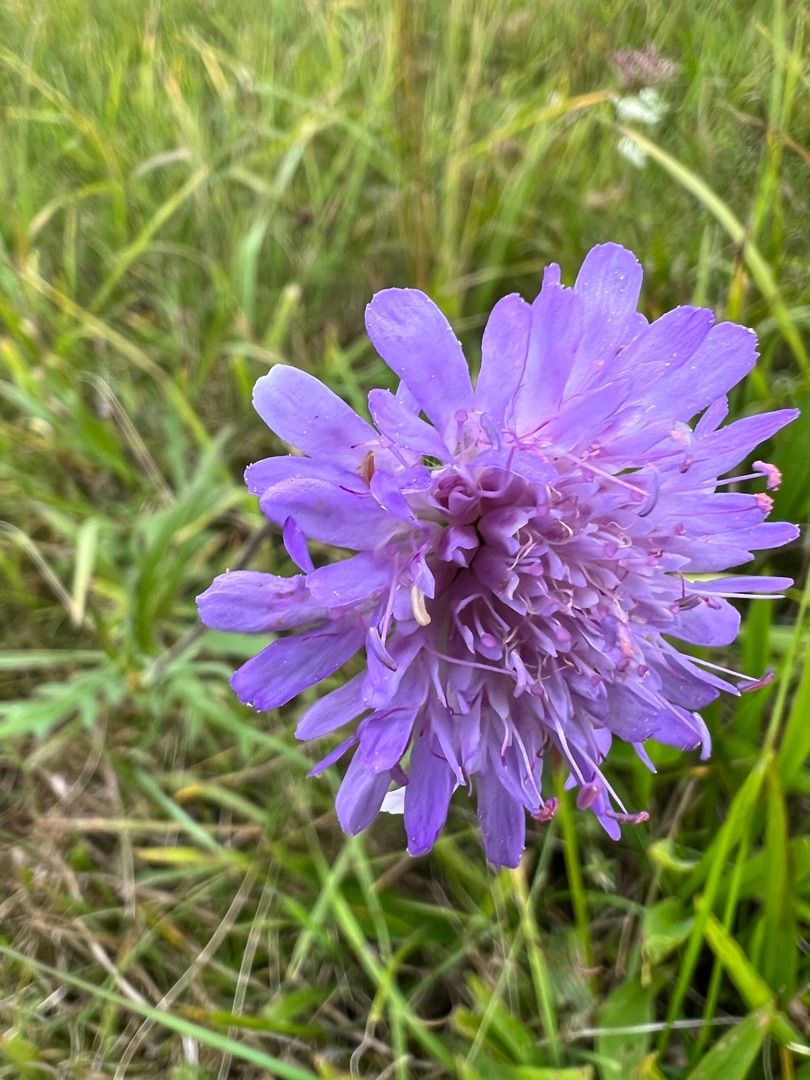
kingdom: Plantae
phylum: Tracheophyta
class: Magnoliopsida
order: Dipsacales
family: Caprifoliaceae
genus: Knautia
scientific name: Knautia arvensis
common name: Blåhat
